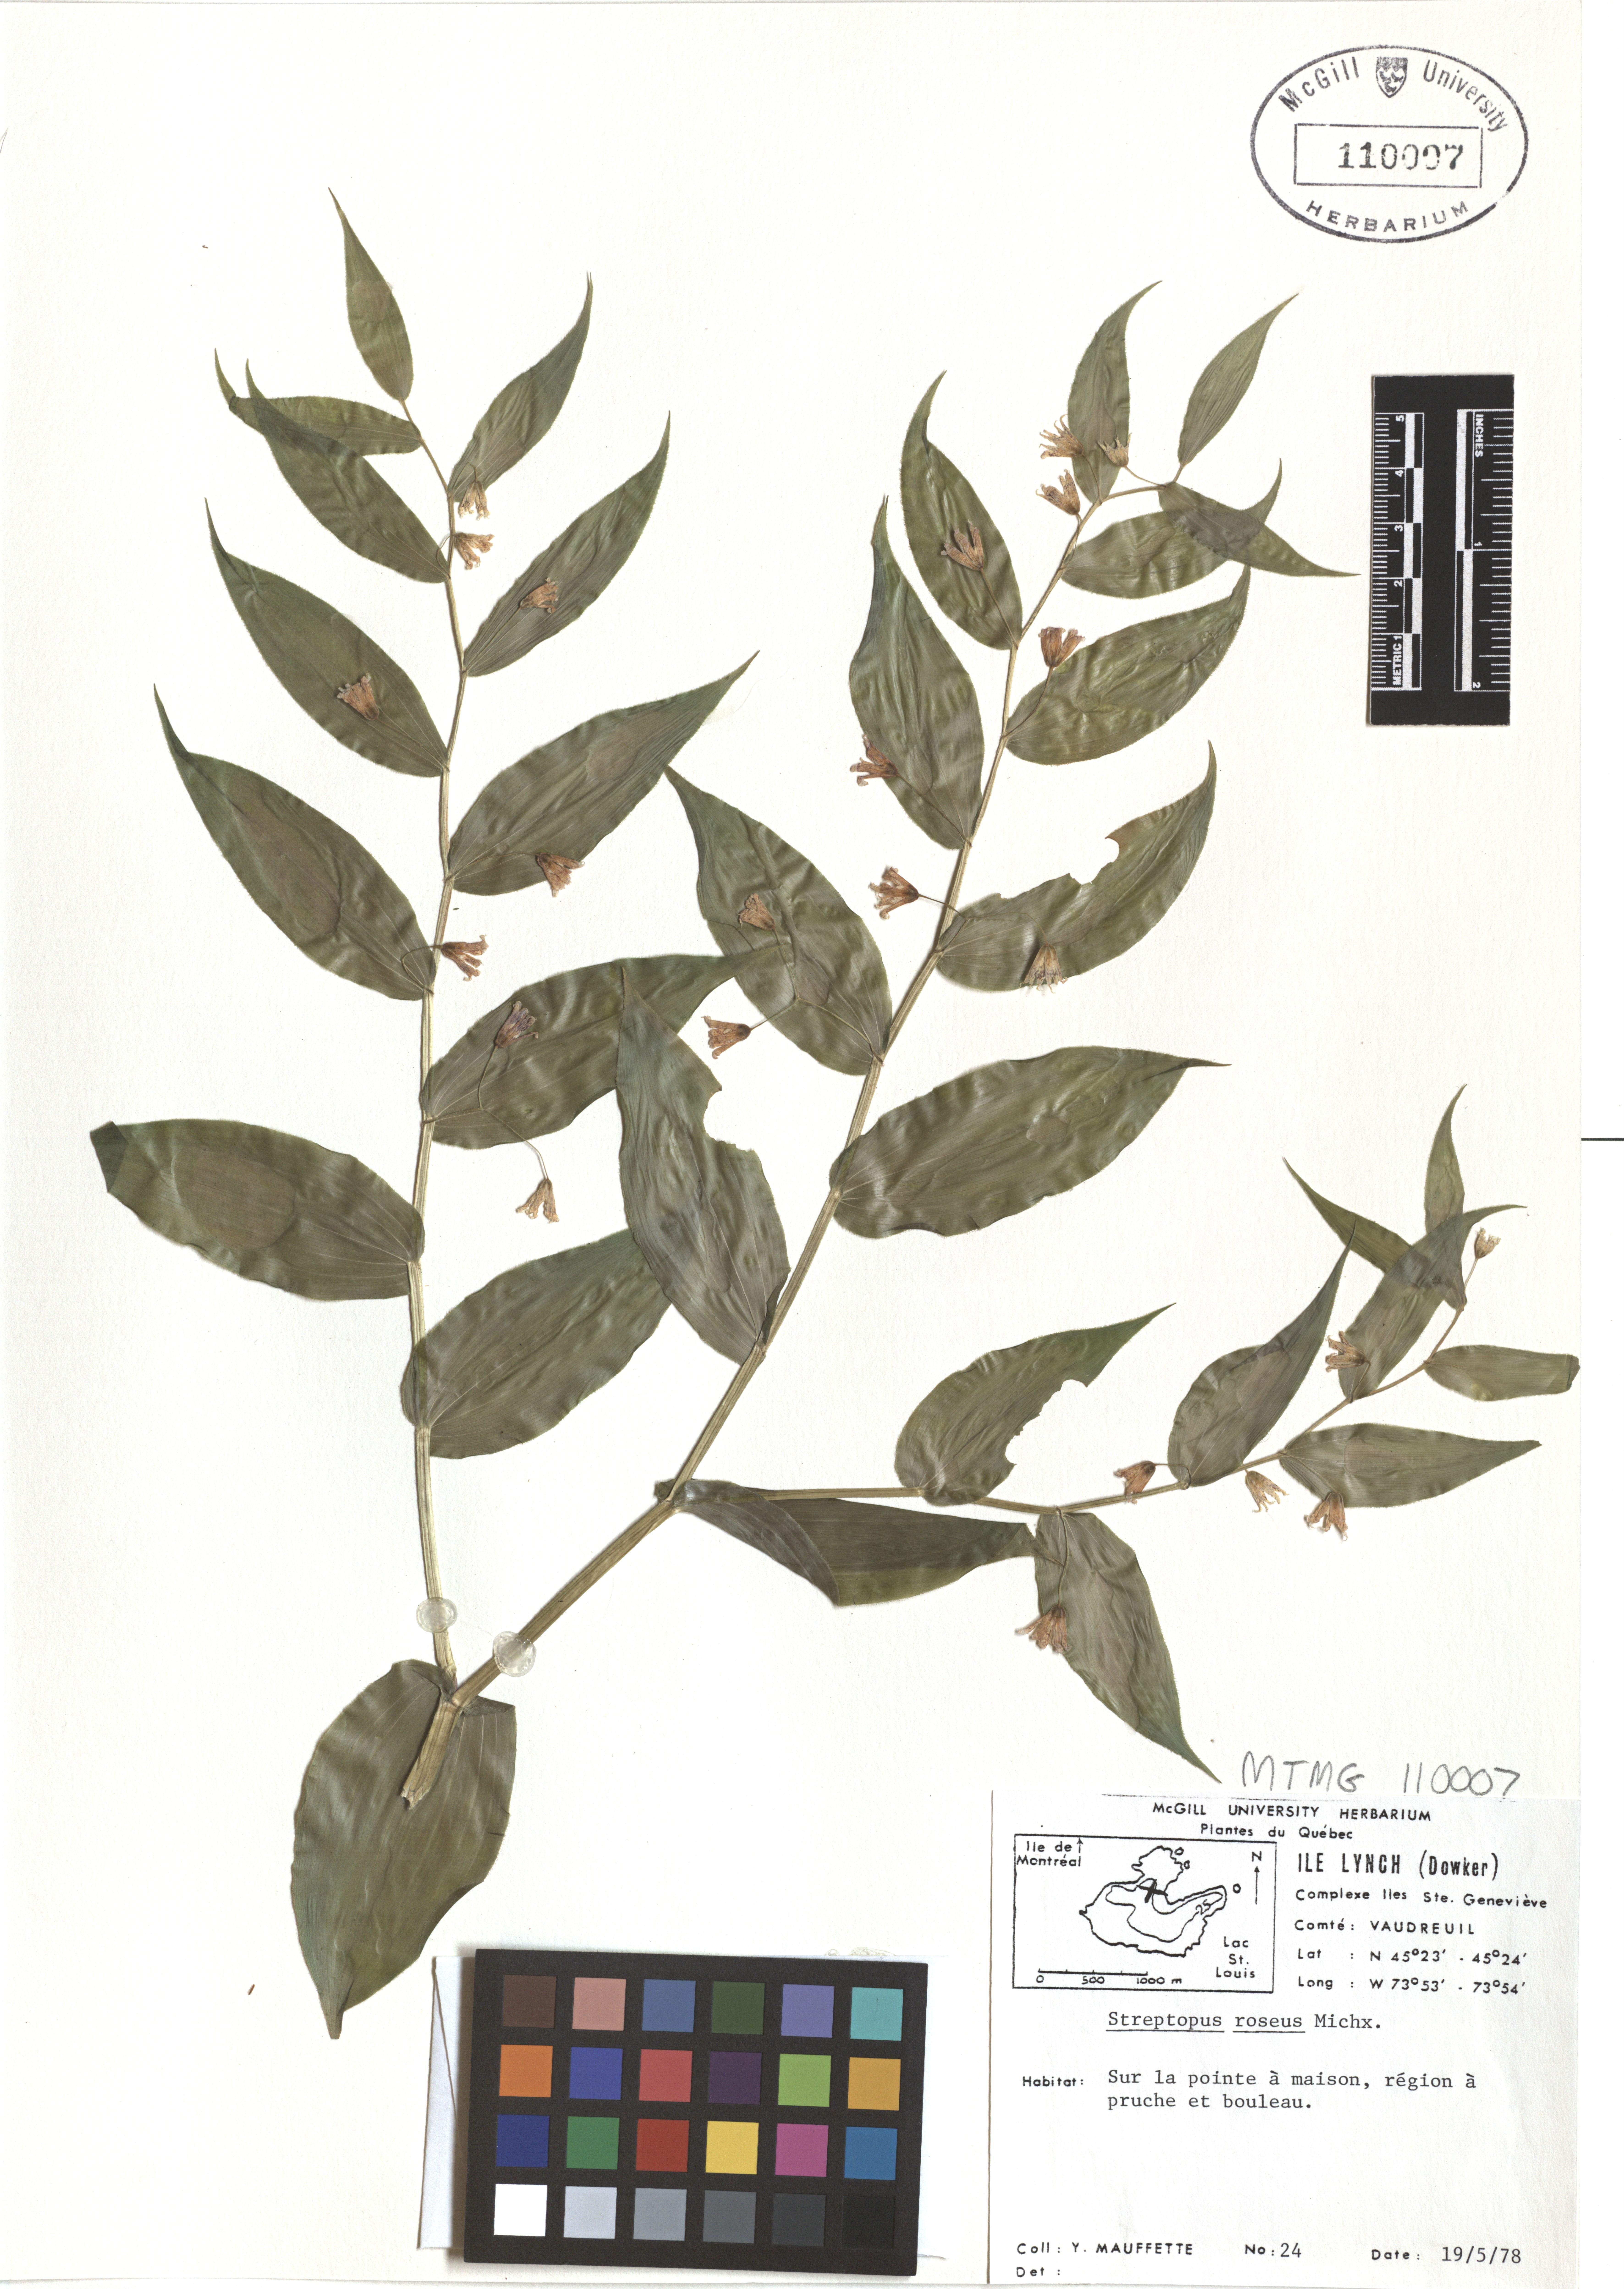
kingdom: Plantae
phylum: Tracheophyta
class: Liliopsida
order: Liliales
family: Liliaceae
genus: Streptopus
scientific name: Streptopus lanceolatus
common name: Rose mandarin
